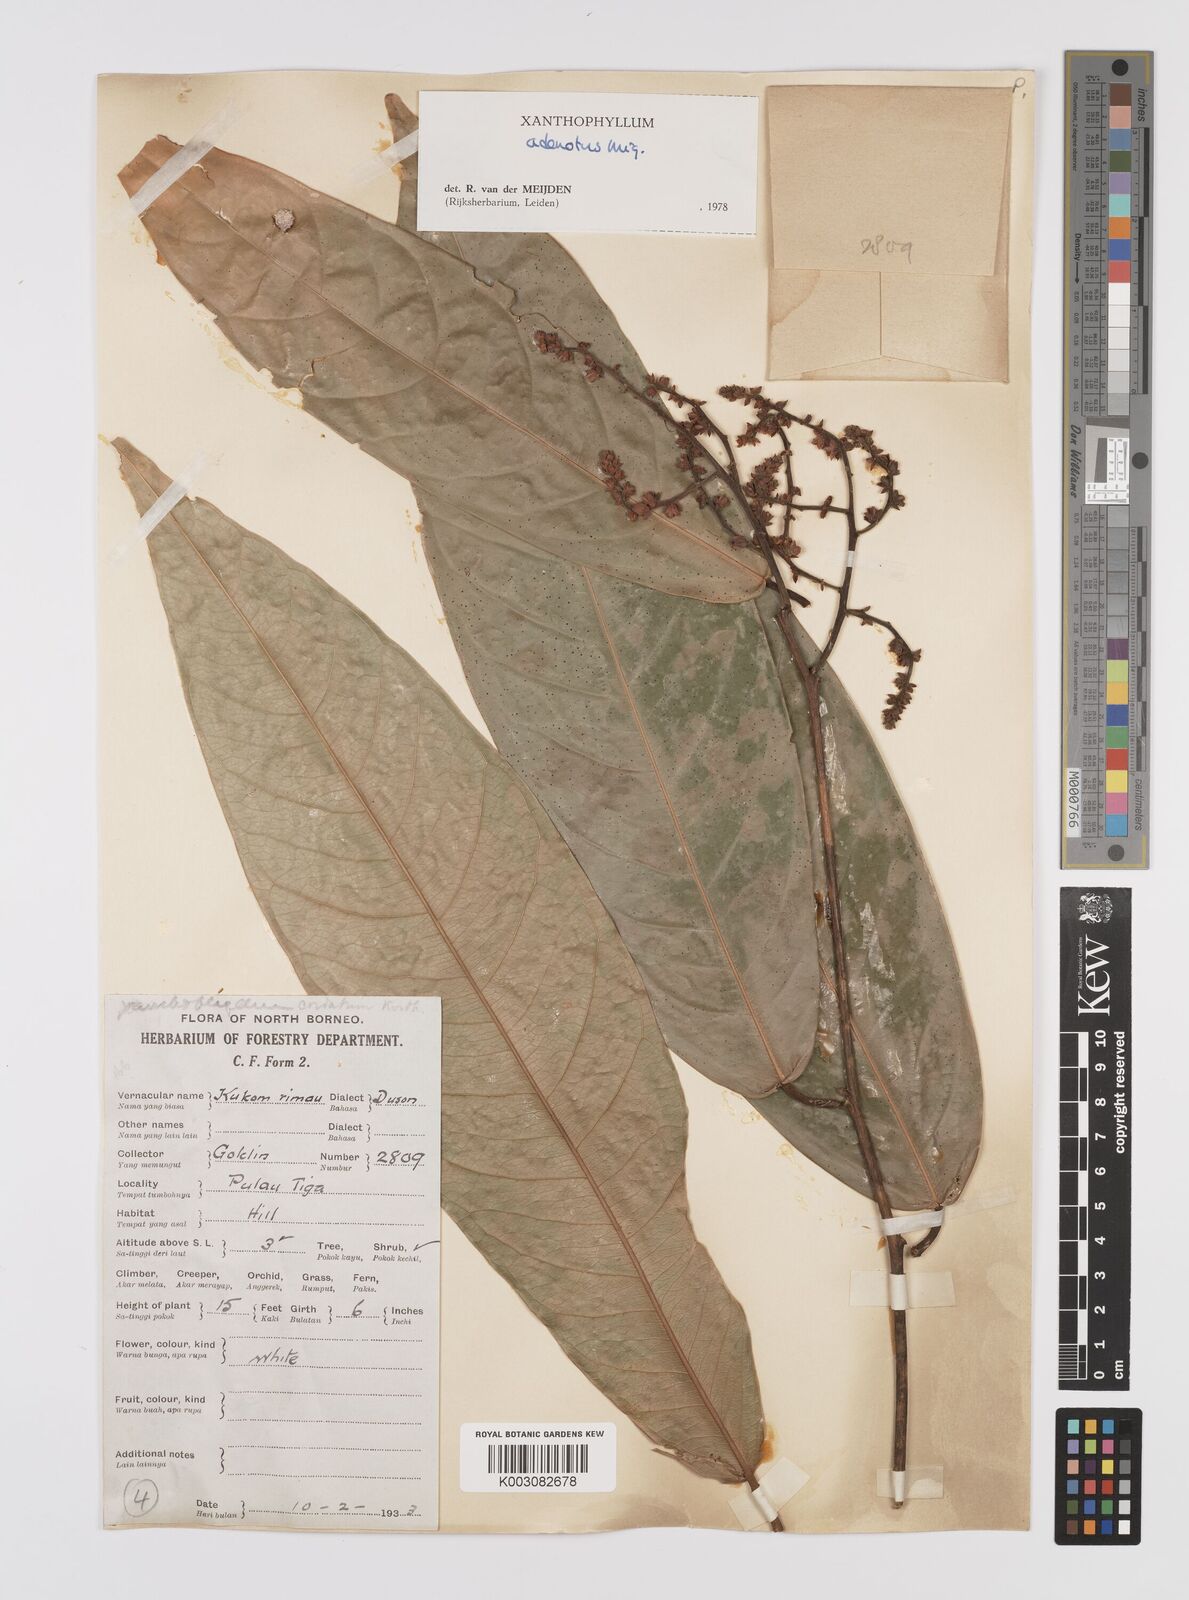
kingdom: Plantae
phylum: Tracheophyta
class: Magnoliopsida
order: Fabales
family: Polygalaceae
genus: Xanthophyllum
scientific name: Xanthophyllum adenotus
